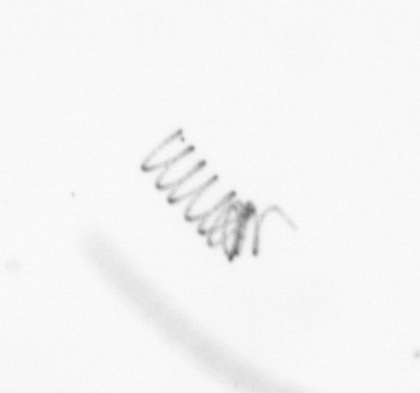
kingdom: Chromista
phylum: Ochrophyta
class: Bacillariophyceae
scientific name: Bacillariophyceae
